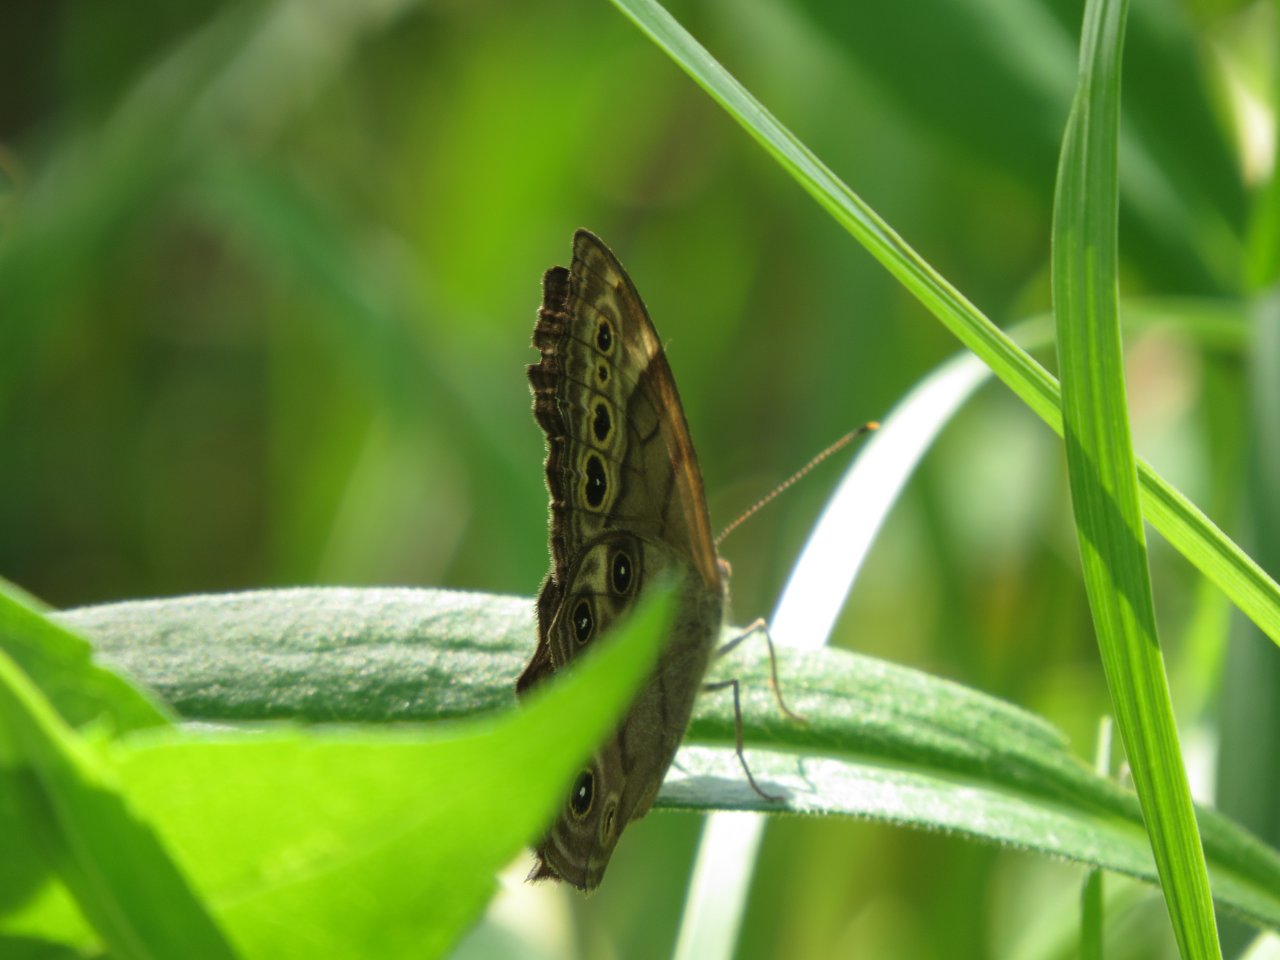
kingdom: Animalia
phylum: Arthropoda
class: Insecta
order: Lepidoptera
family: Nymphalidae
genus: Lethe
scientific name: Lethe anthedon
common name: Northern Pearly-Eye
